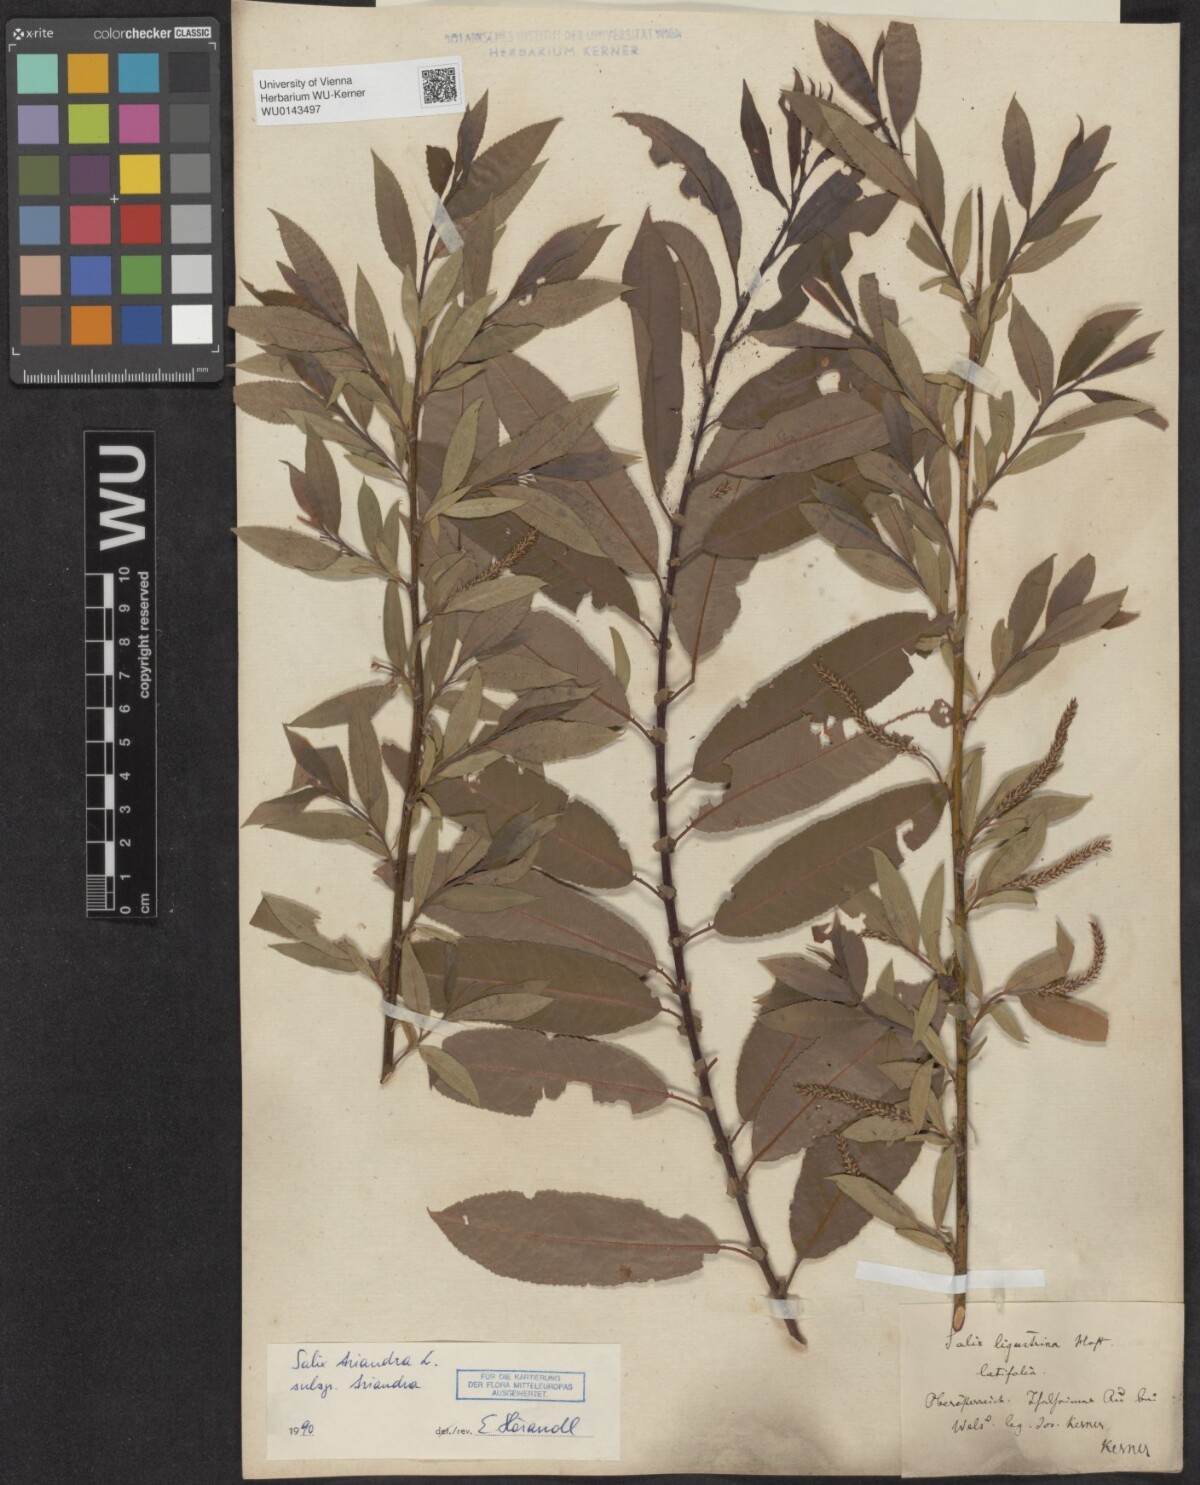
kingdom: Plantae
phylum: Tracheophyta
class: Magnoliopsida
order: Malpighiales
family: Salicaceae
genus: Salix
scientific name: Salix triandra
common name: Almond willow
